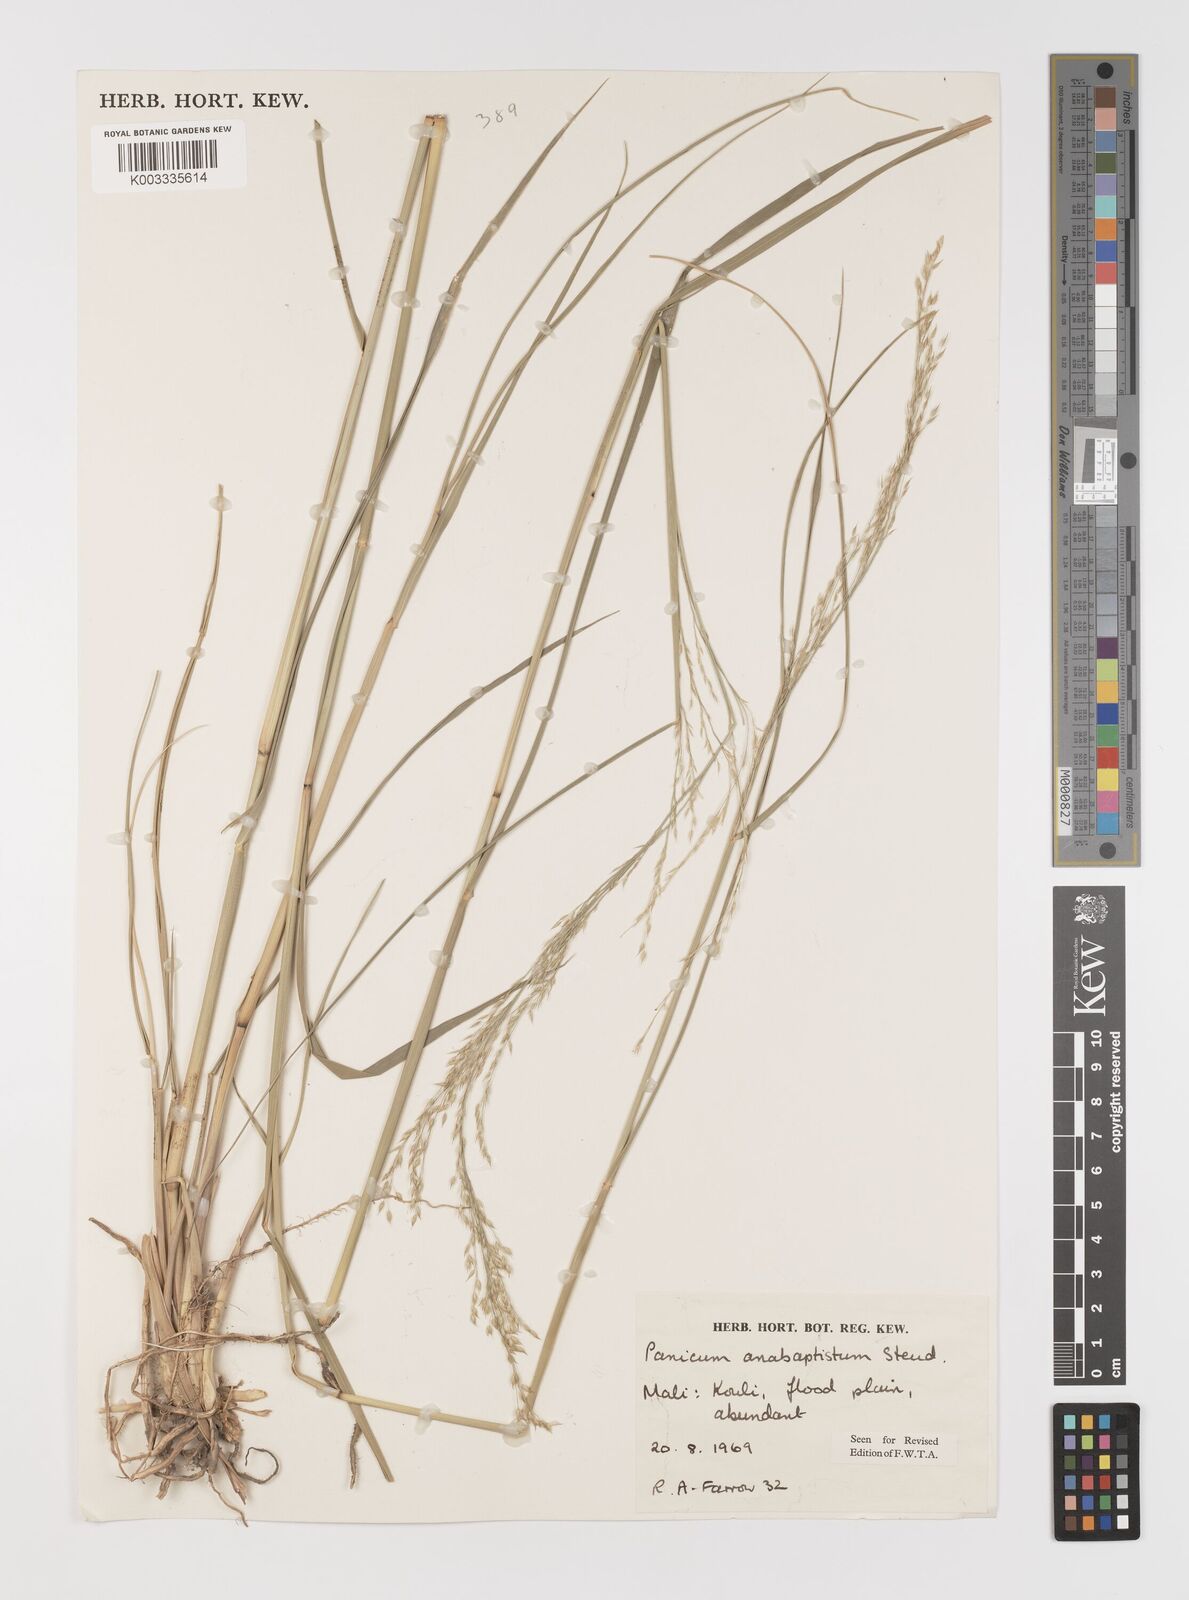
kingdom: Plantae
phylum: Tracheophyta
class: Liliopsida
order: Poales
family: Poaceae
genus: Panicum
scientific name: Panicum anabaptistum
